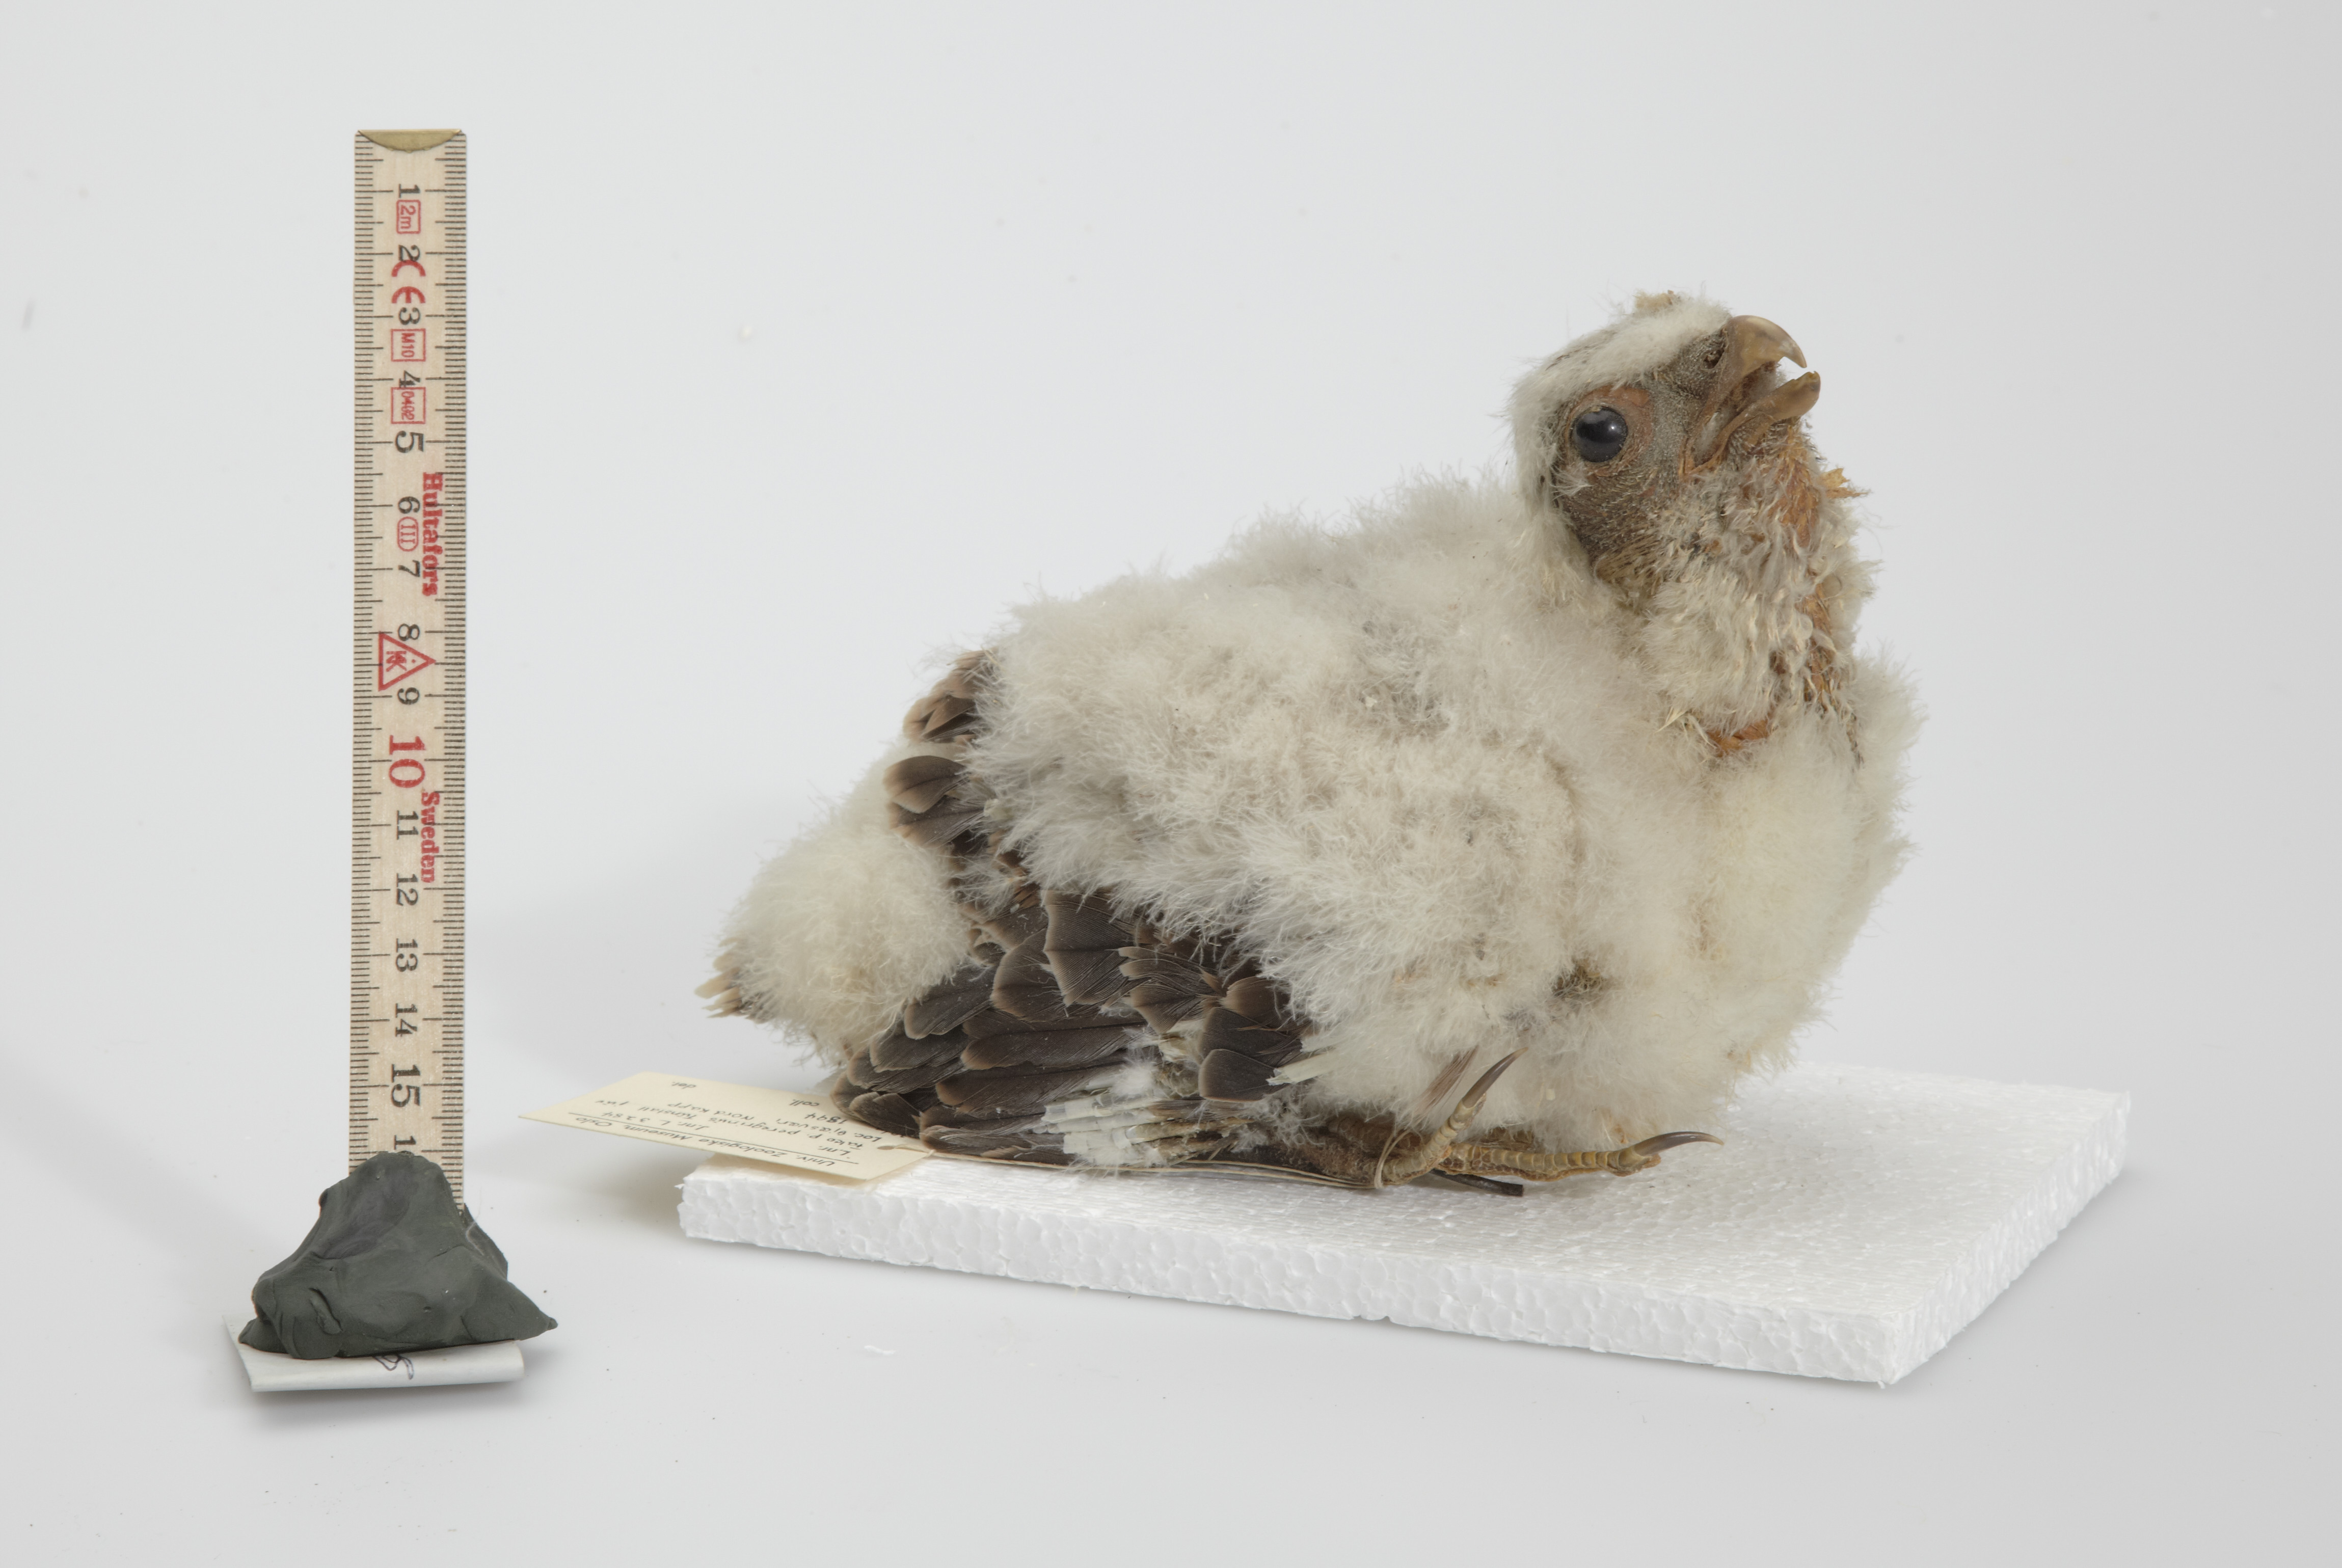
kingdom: Animalia
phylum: Chordata
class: Aves
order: Falconiformes
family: Falconidae
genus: Falco
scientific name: Falco peregrinus
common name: Peregrine falcon
